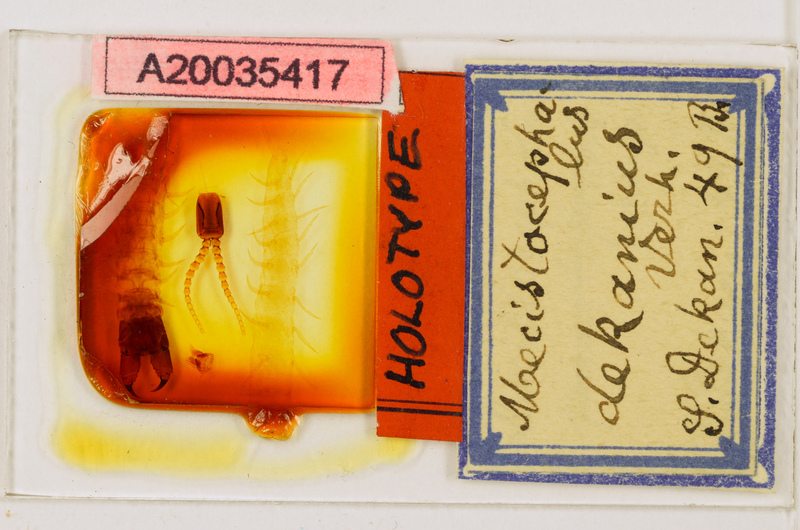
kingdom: Animalia
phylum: Arthropoda
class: Chilopoda
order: Geophilomorpha
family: Mecistocephalidae
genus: Mecistocephalus
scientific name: Mecistocephalus punctifrons
